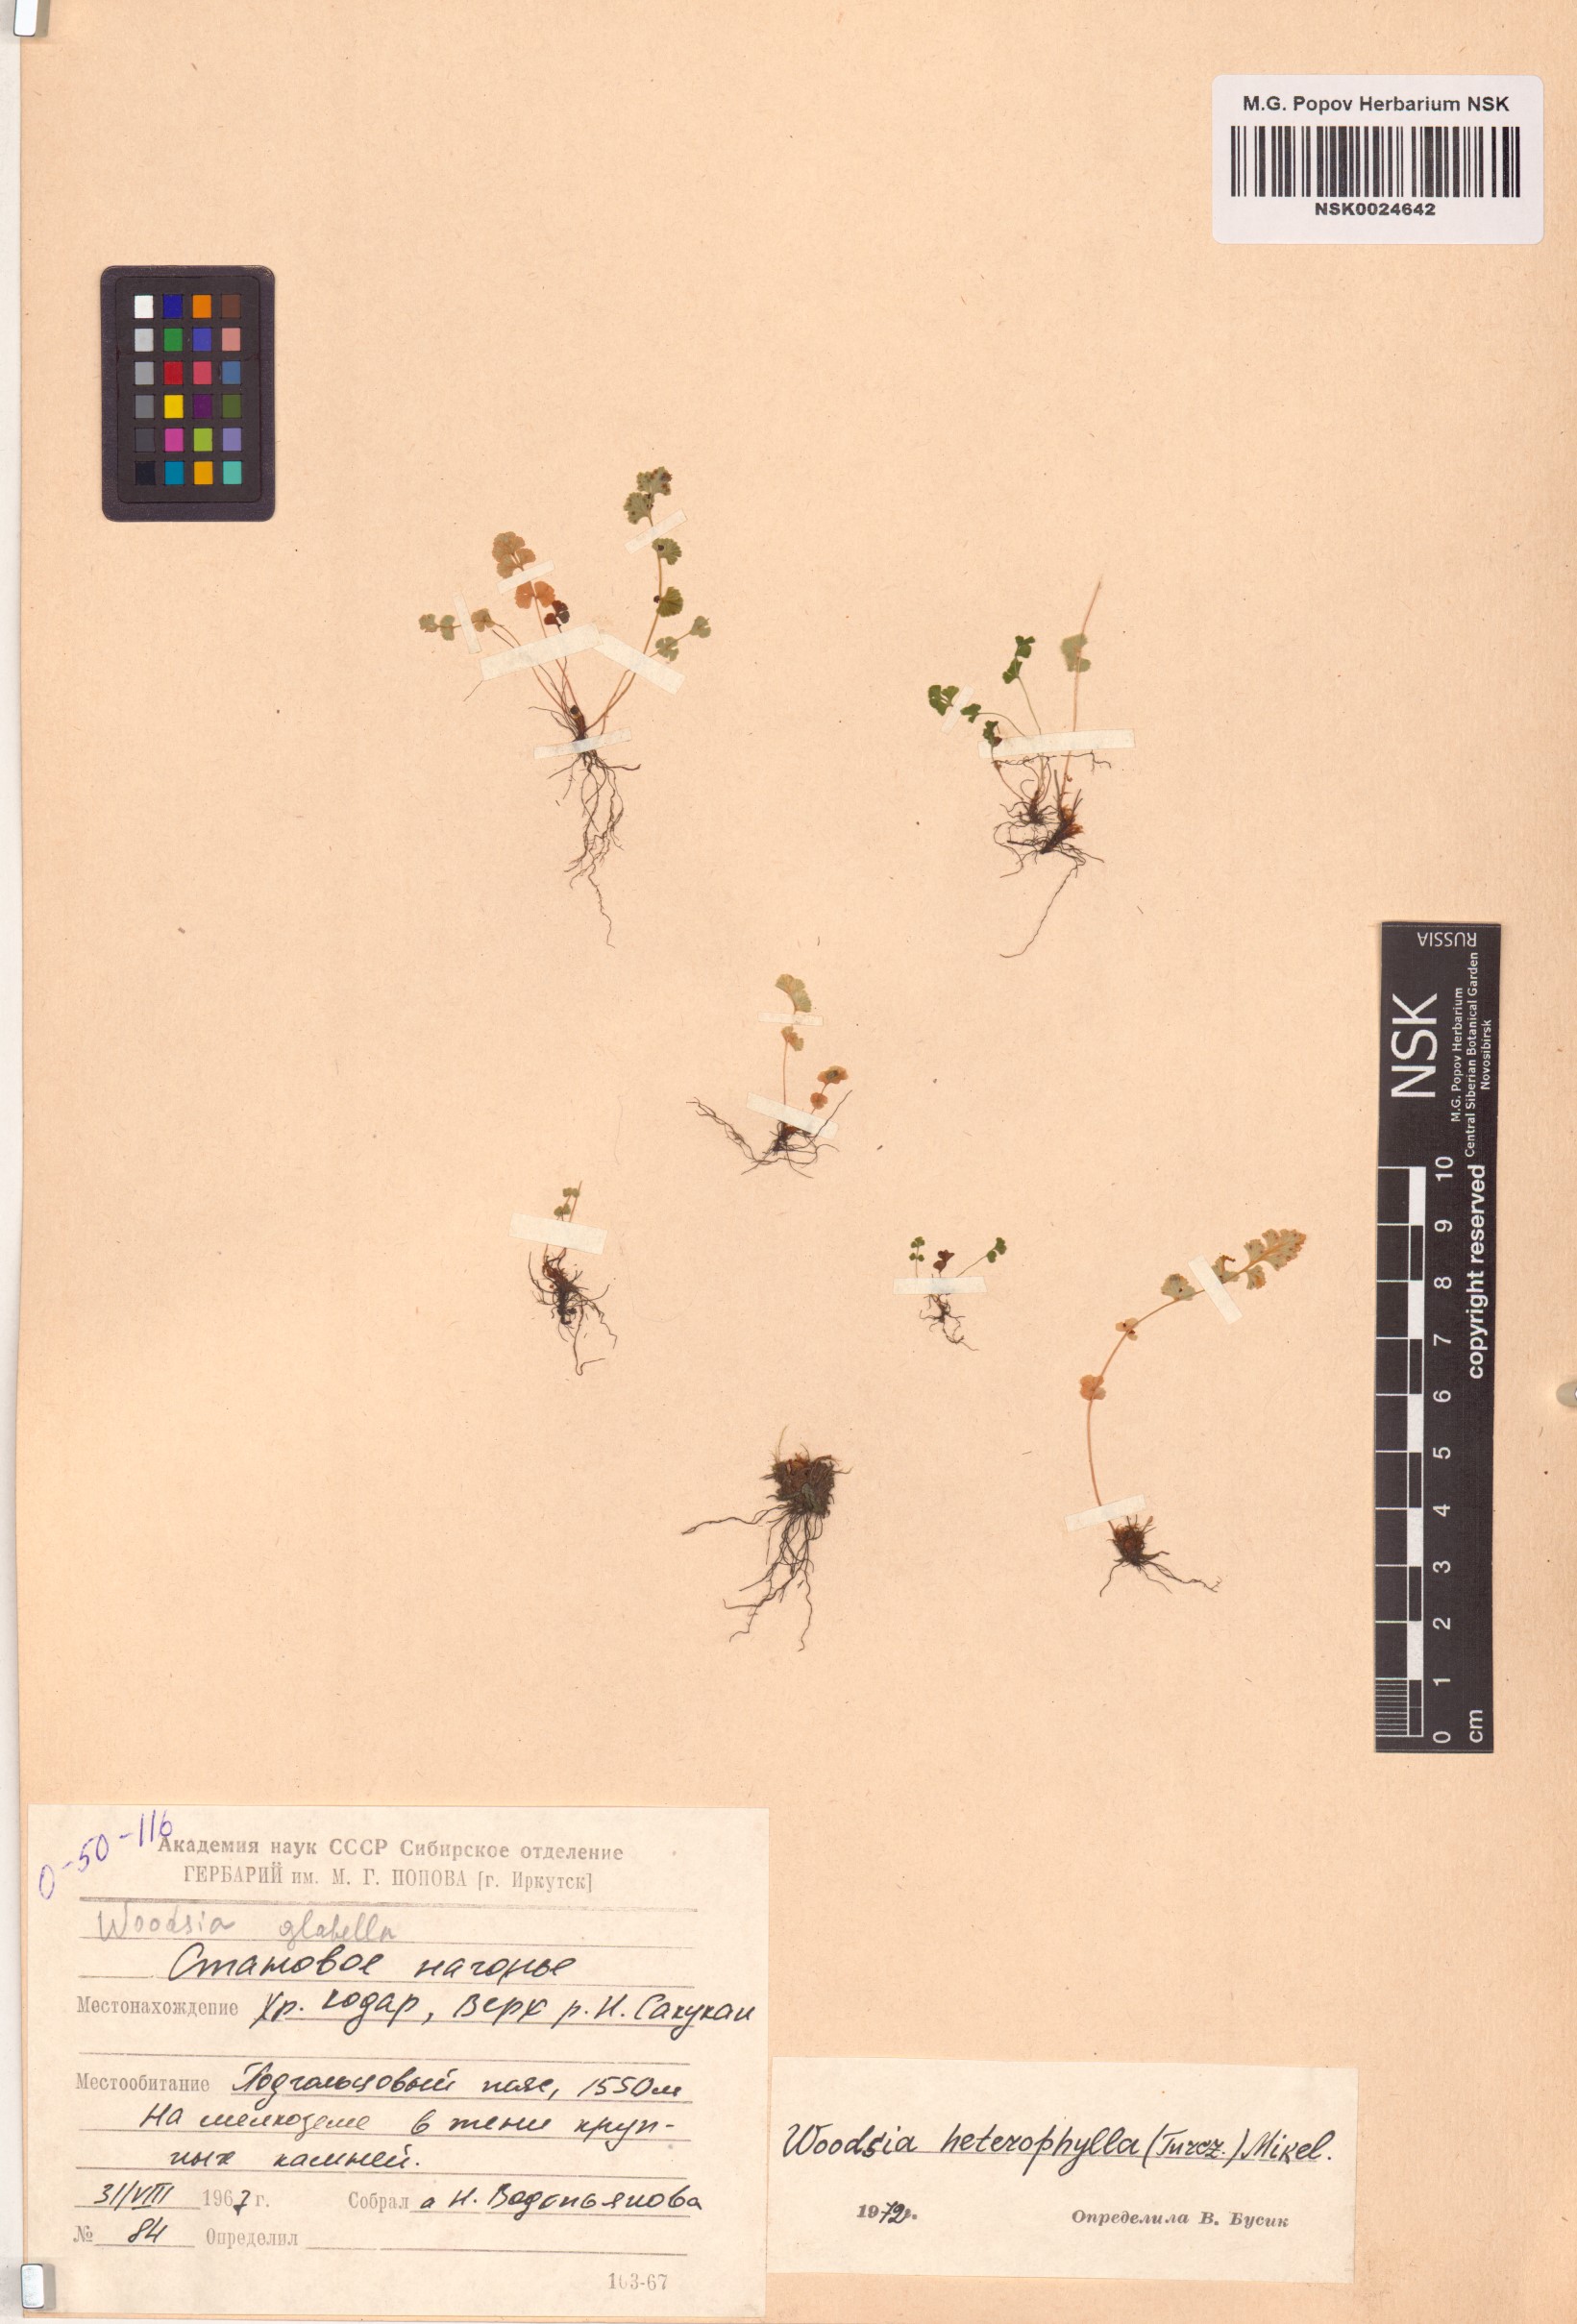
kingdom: Plantae
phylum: Tracheophyta
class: Polypodiopsida
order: Polypodiales
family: Woodsiaceae
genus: Woodsia
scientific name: Woodsia pulchella
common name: Graceful woodsia
